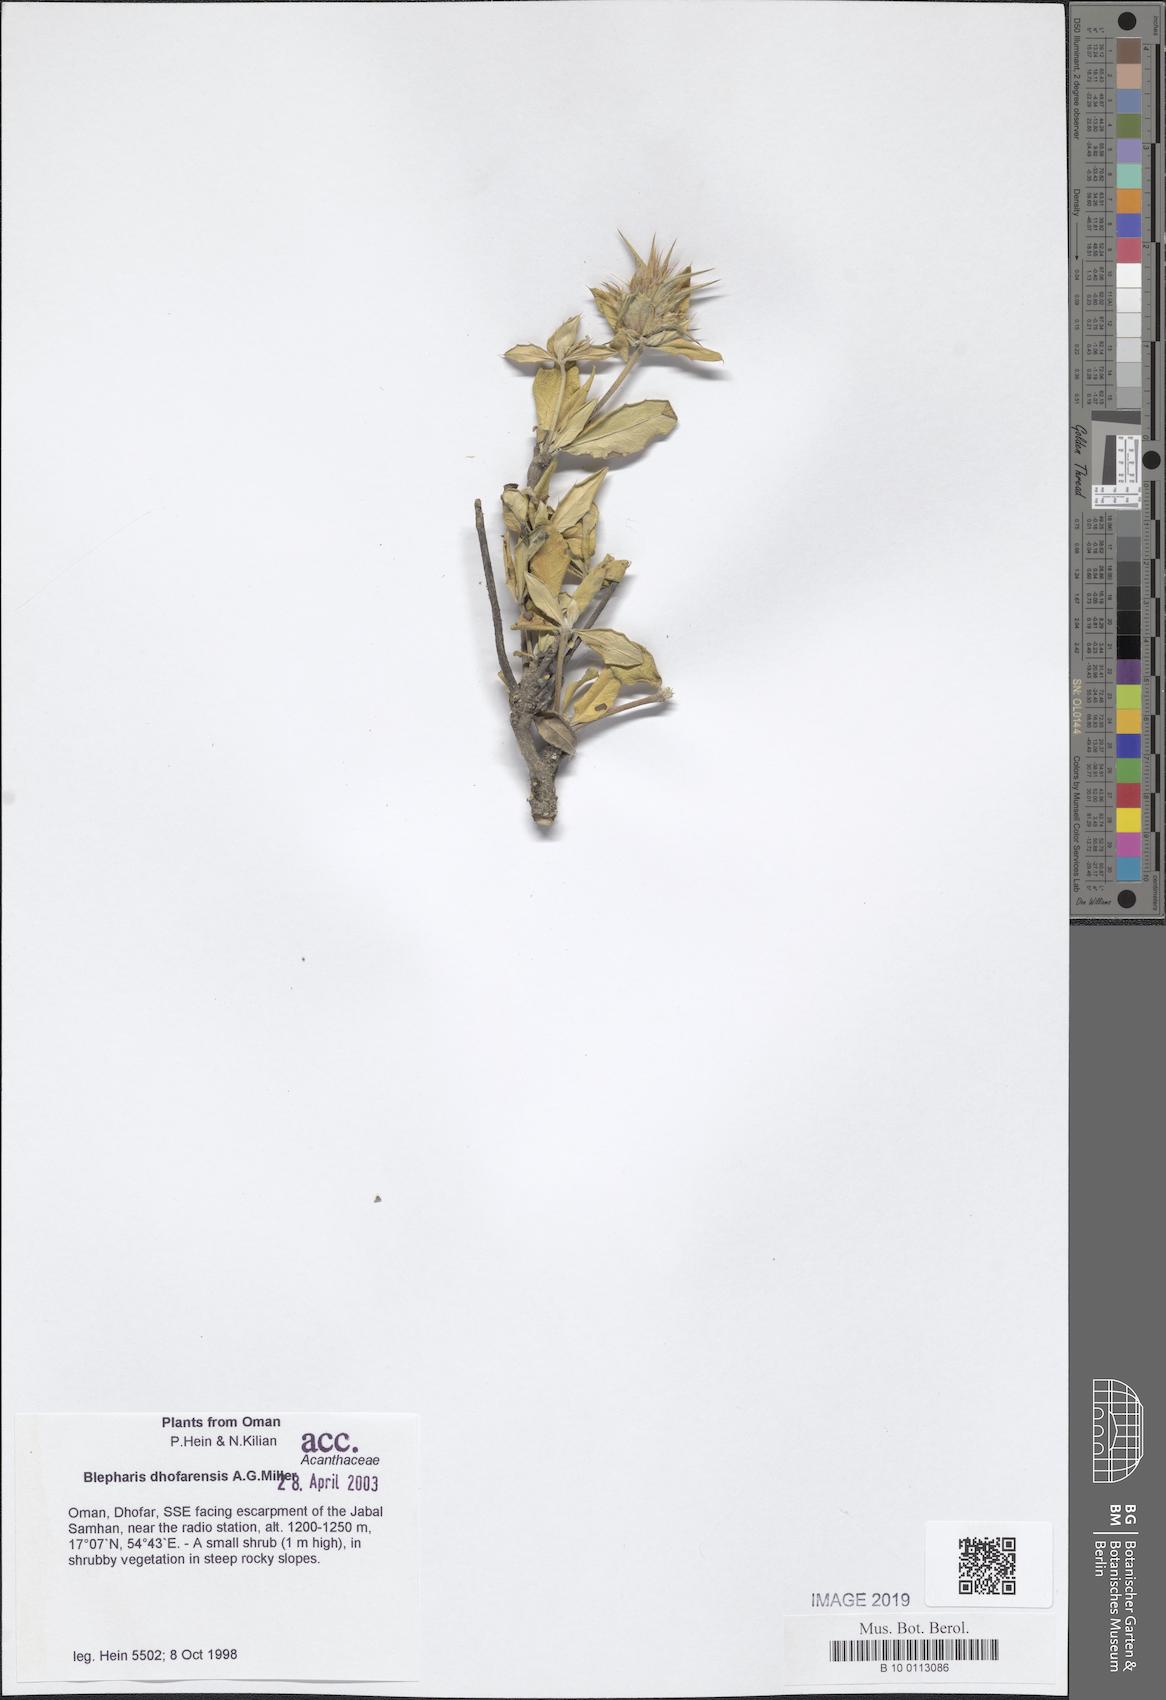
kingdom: Plantae
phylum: Tracheophyta
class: Magnoliopsida
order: Lamiales
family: Acanthaceae
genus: Blepharis
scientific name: Blepharis dhofarensis
